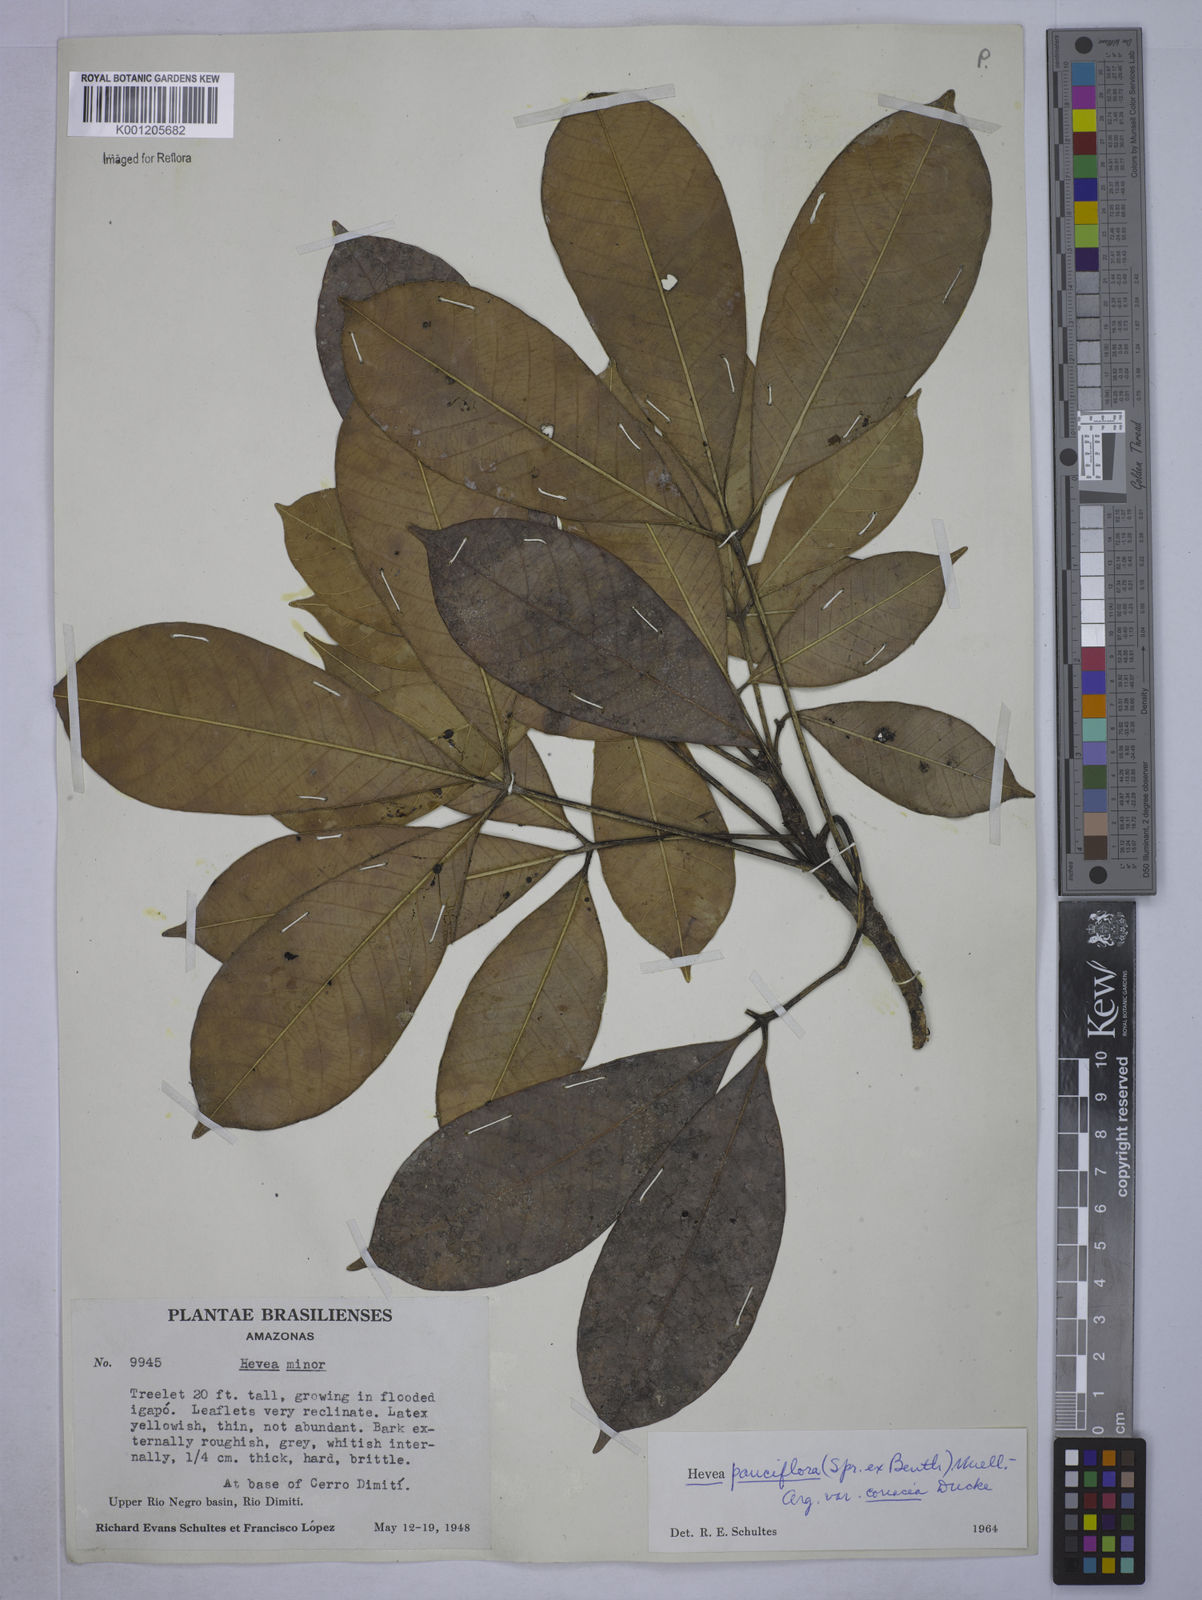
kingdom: Plantae
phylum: Tracheophyta
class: Magnoliopsida
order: Malpighiales
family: Euphorbiaceae
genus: Hevea
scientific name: Hevea pauciflora
